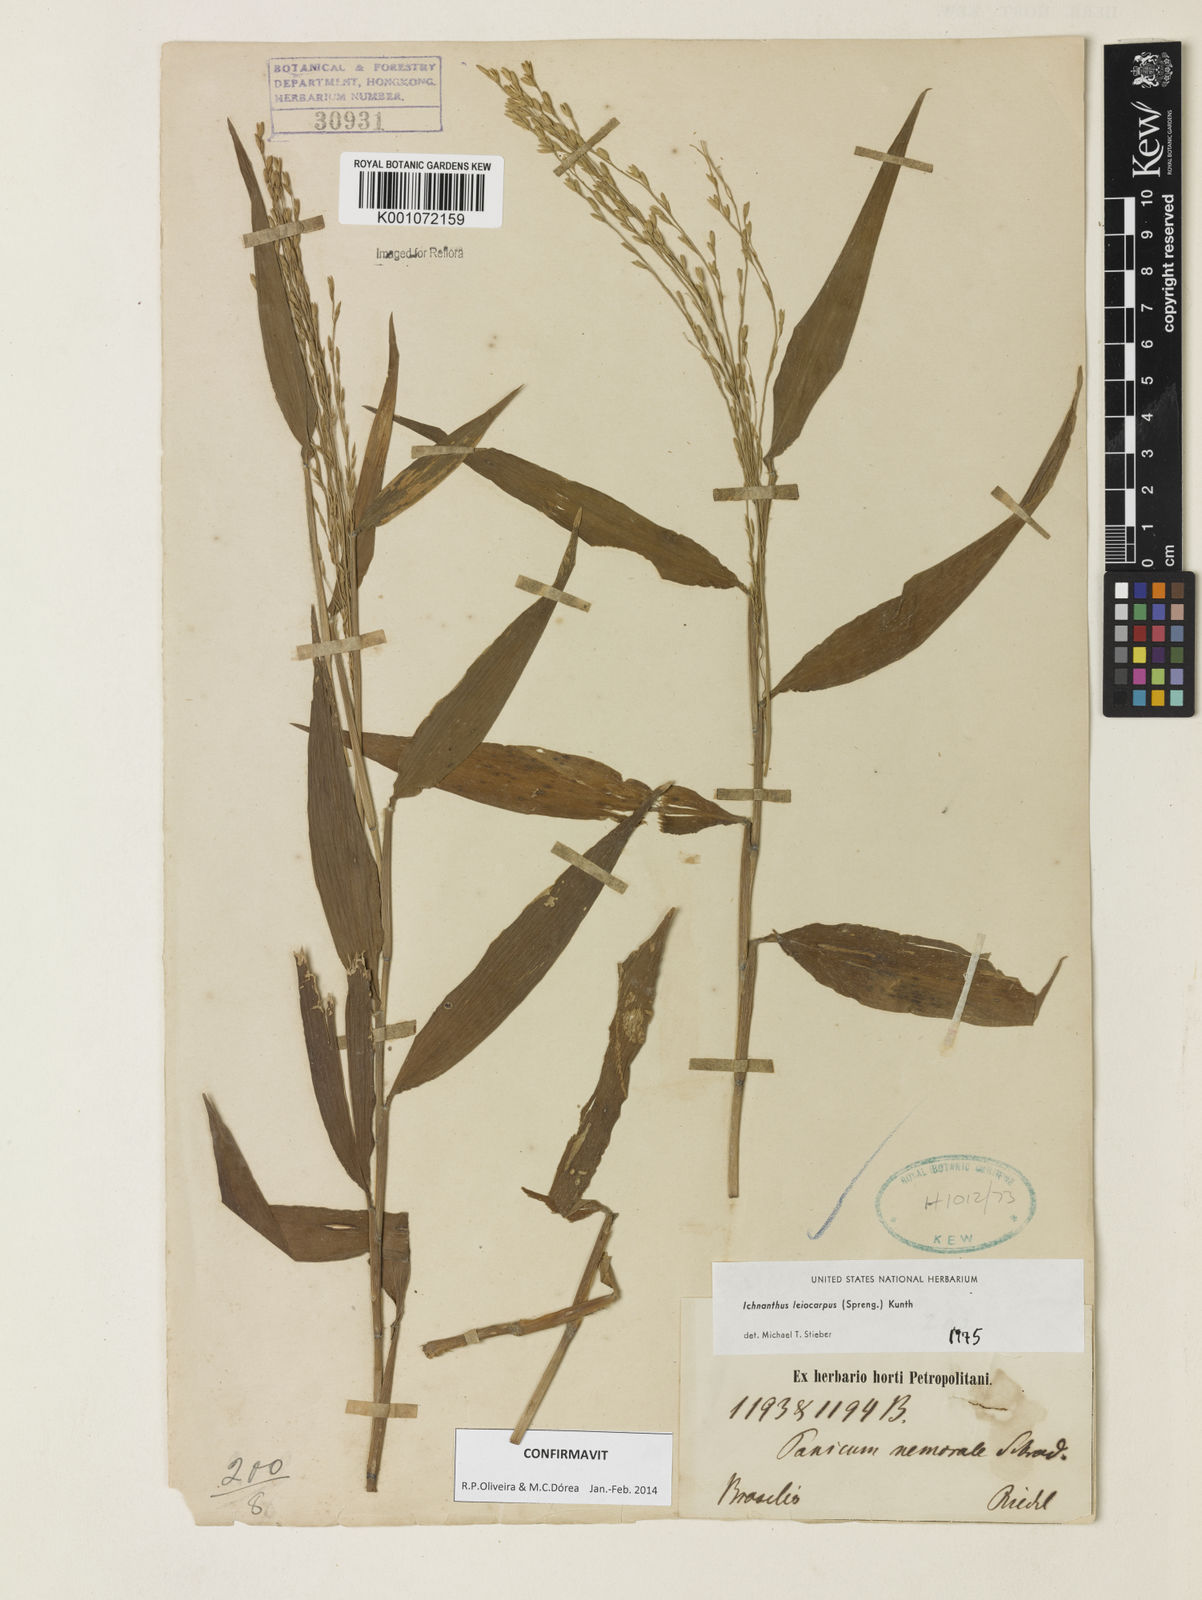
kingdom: Plantae
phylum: Tracheophyta
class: Liliopsida
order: Poales
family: Poaceae
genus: Ichnanthus
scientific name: Ichnanthus leiocarpus
